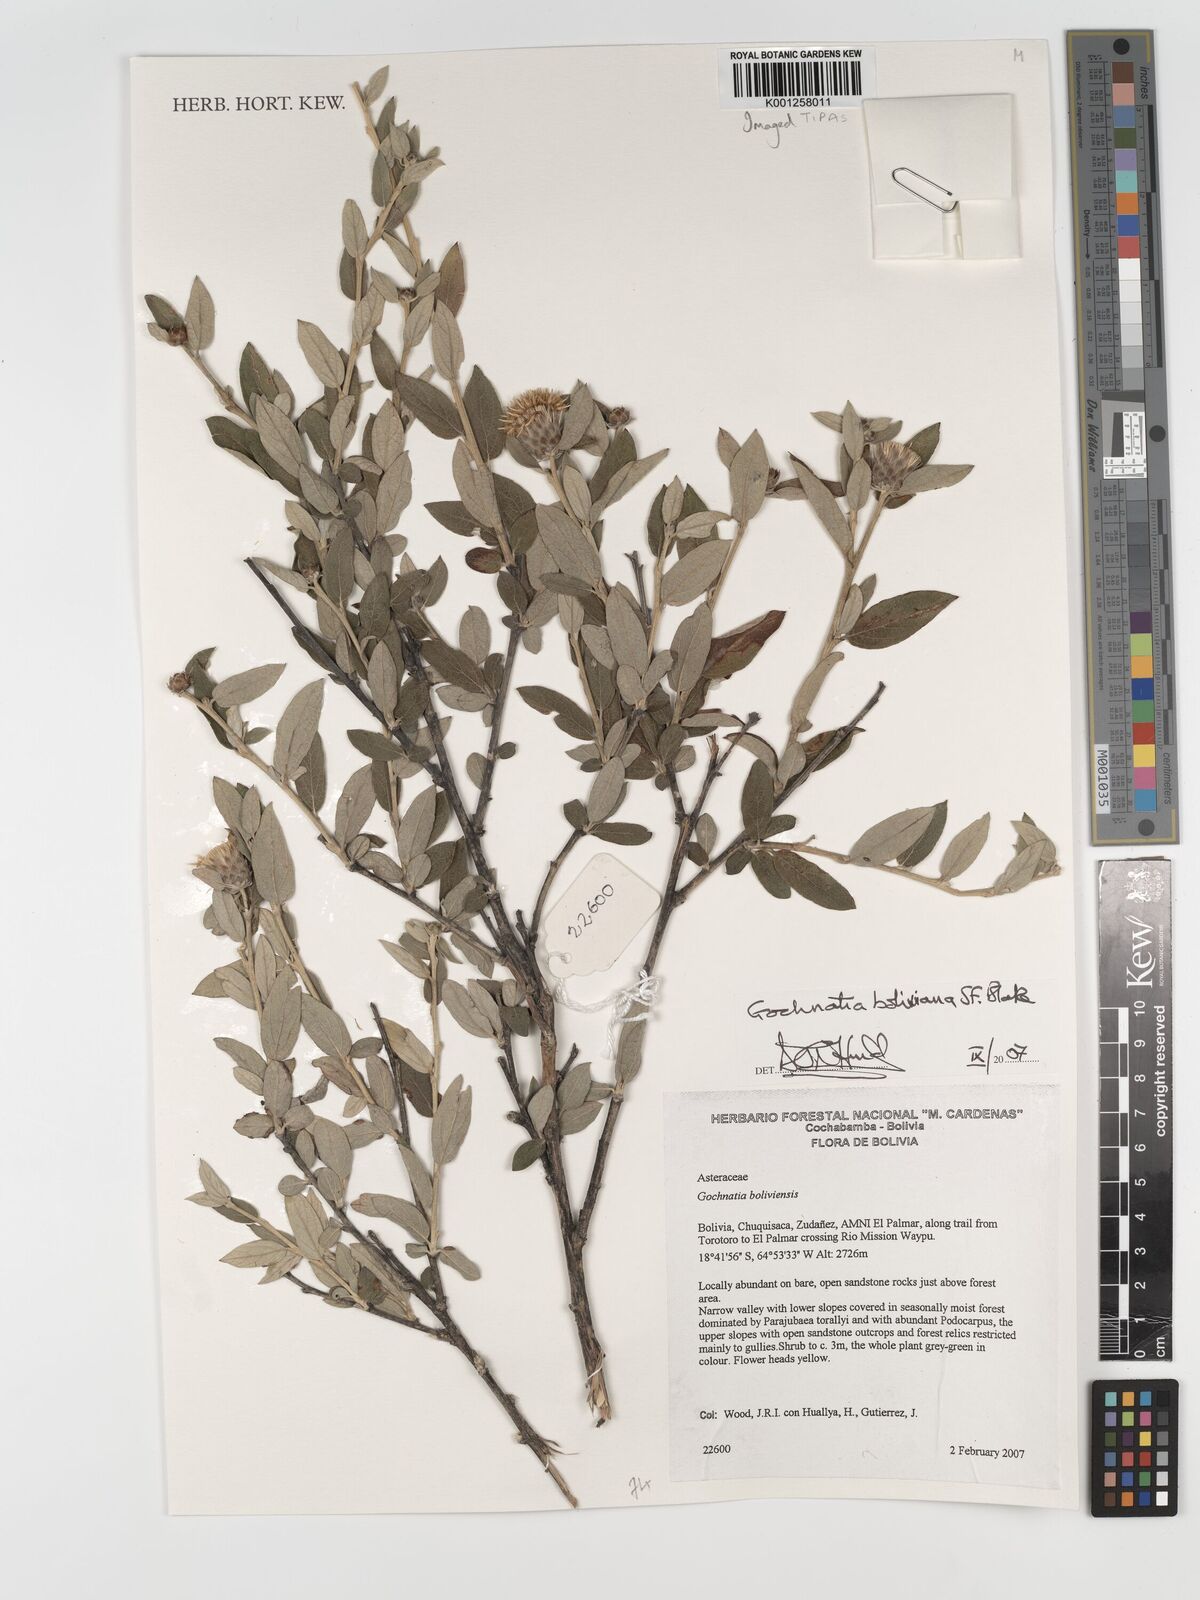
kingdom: Plantae
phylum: Tracheophyta
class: Magnoliopsida
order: Asterales
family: Asteraceae
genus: Gochnatia
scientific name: Gochnatia boliviana
